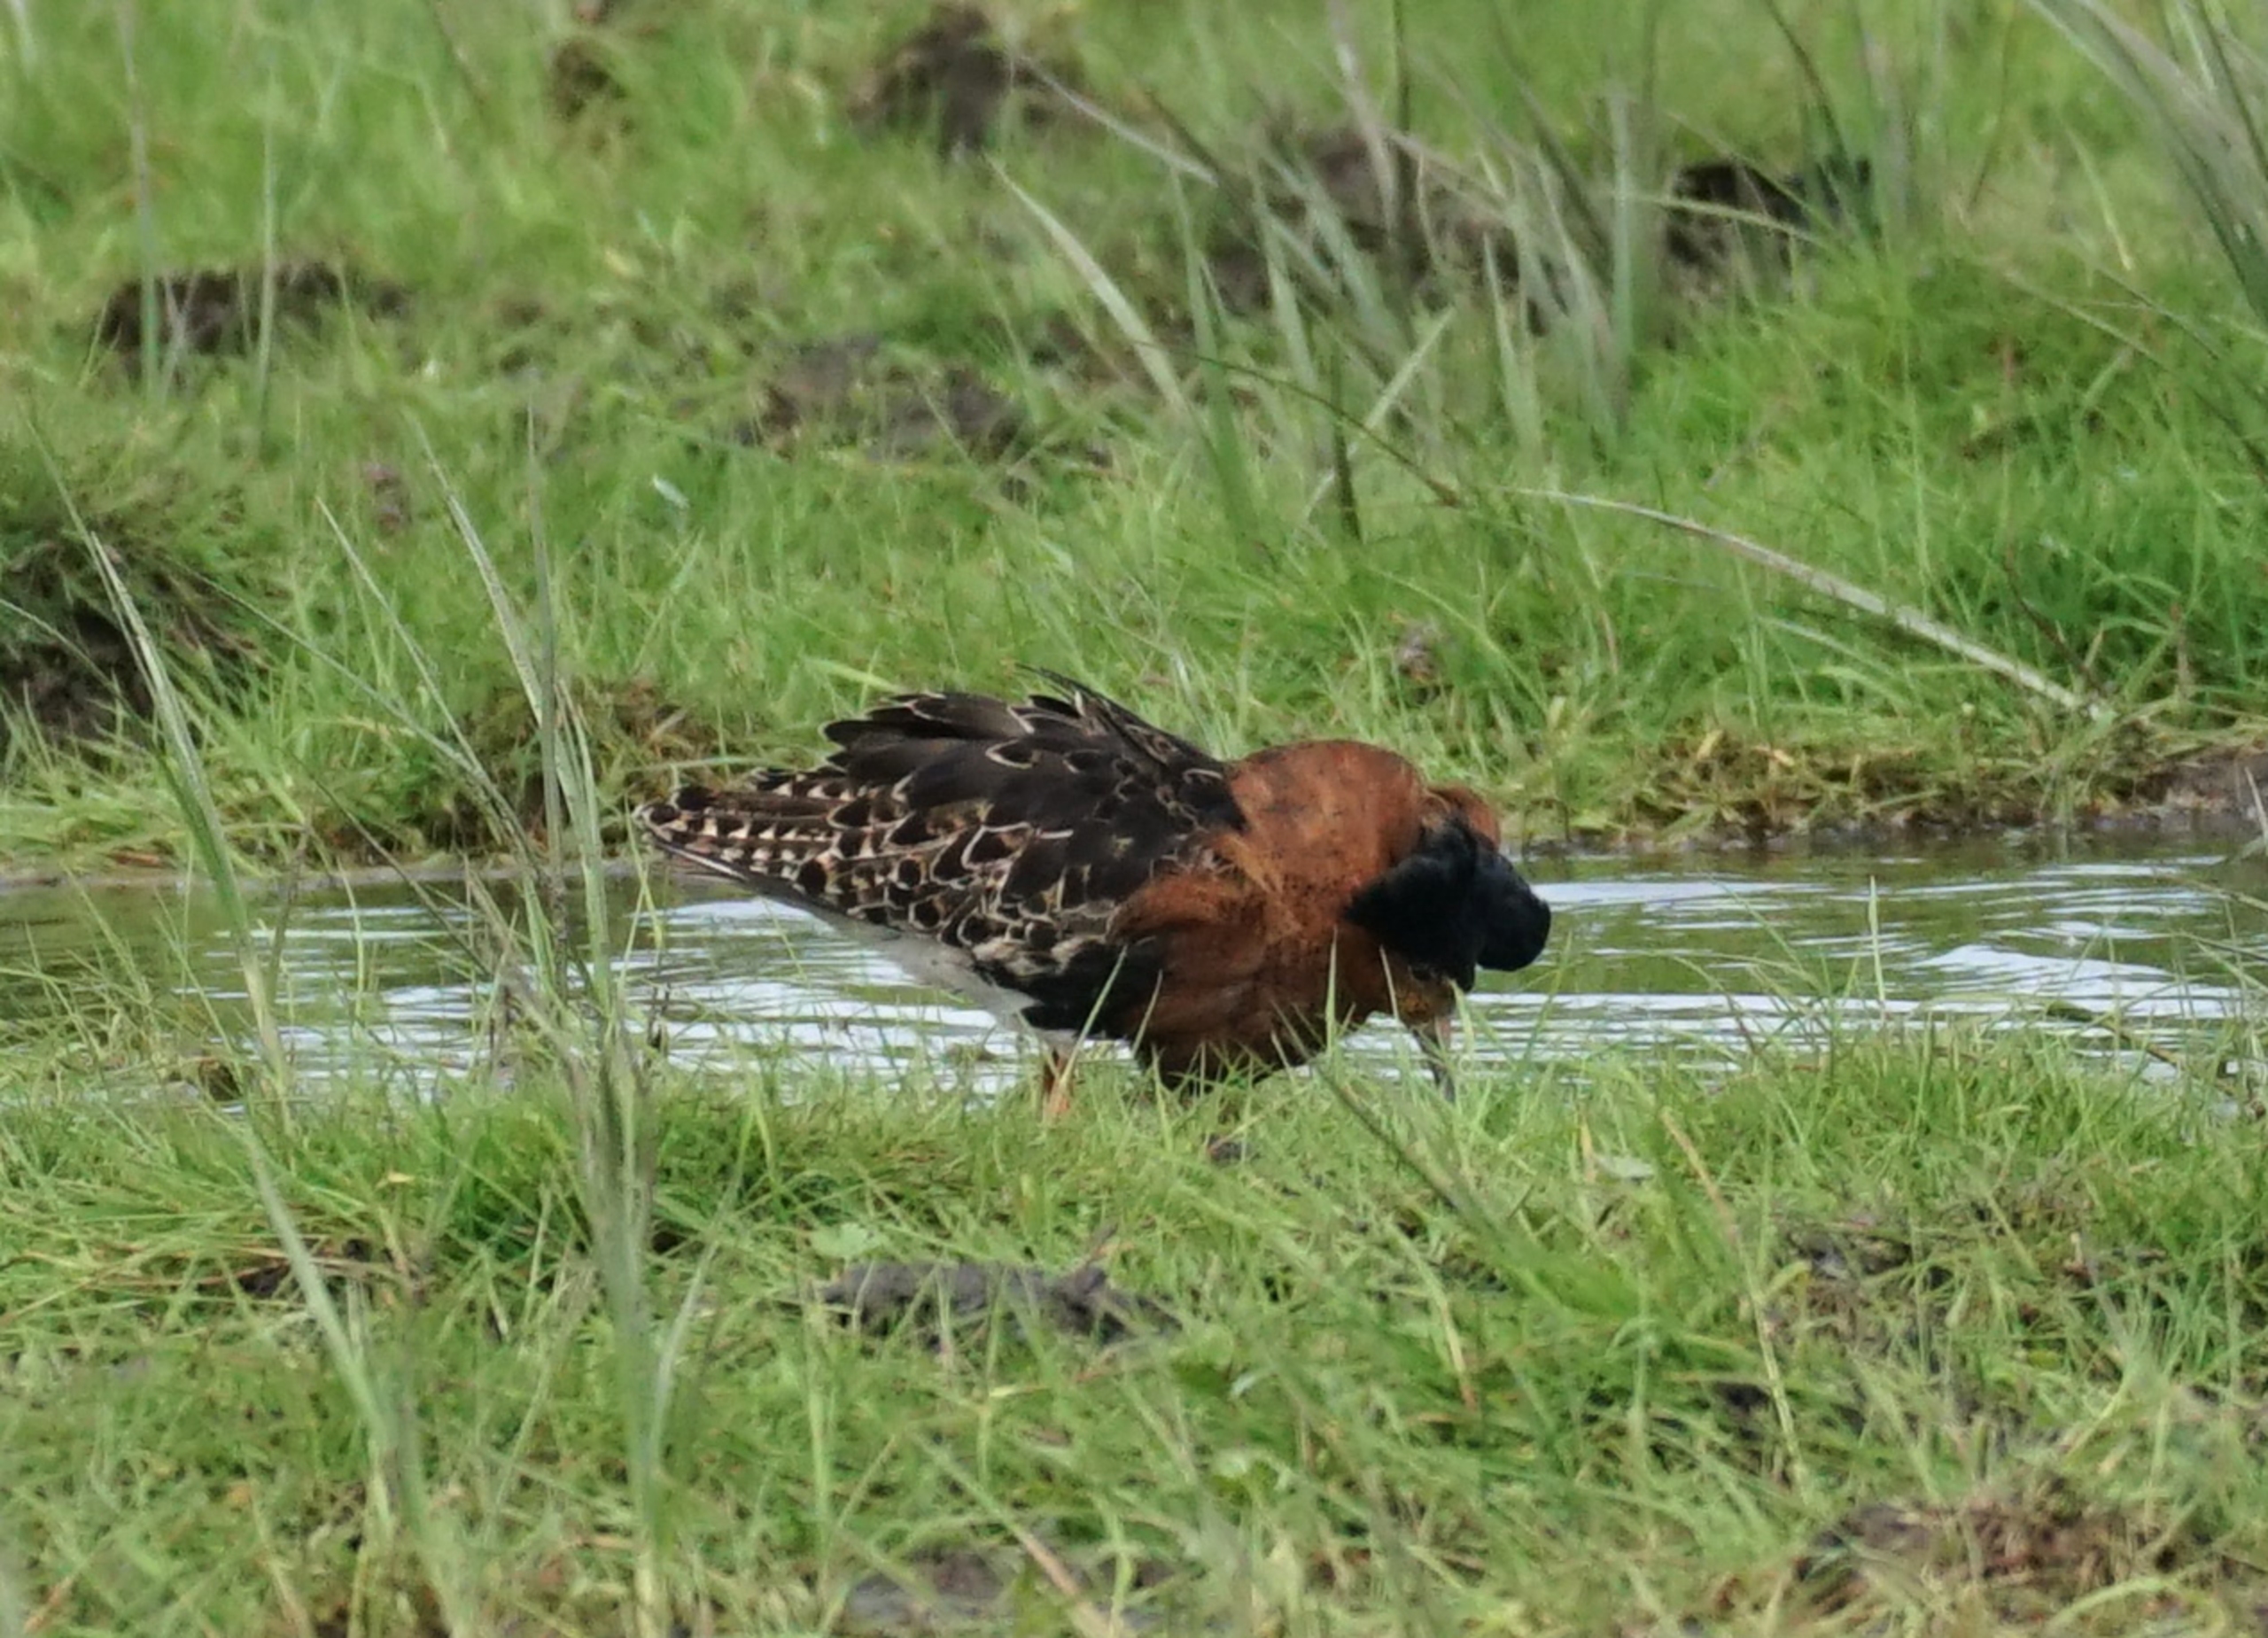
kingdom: Animalia
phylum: Chordata
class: Aves
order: Charadriiformes
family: Scolopacidae
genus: Calidris
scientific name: Calidris pugnax
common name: Brushane
